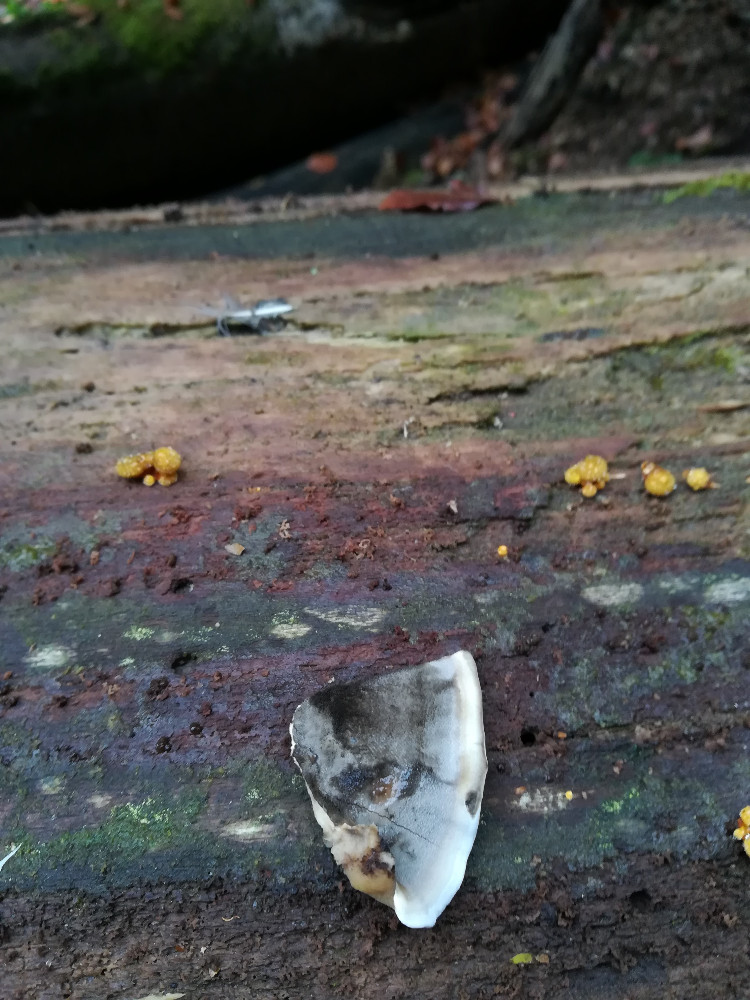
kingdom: Fungi
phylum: Basidiomycota
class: Agaricomycetes
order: Polyporales
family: Phanerochaetaceae
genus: Bjerkandera
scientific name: Bjerkandera adusta
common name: sveden sodporesvamp
